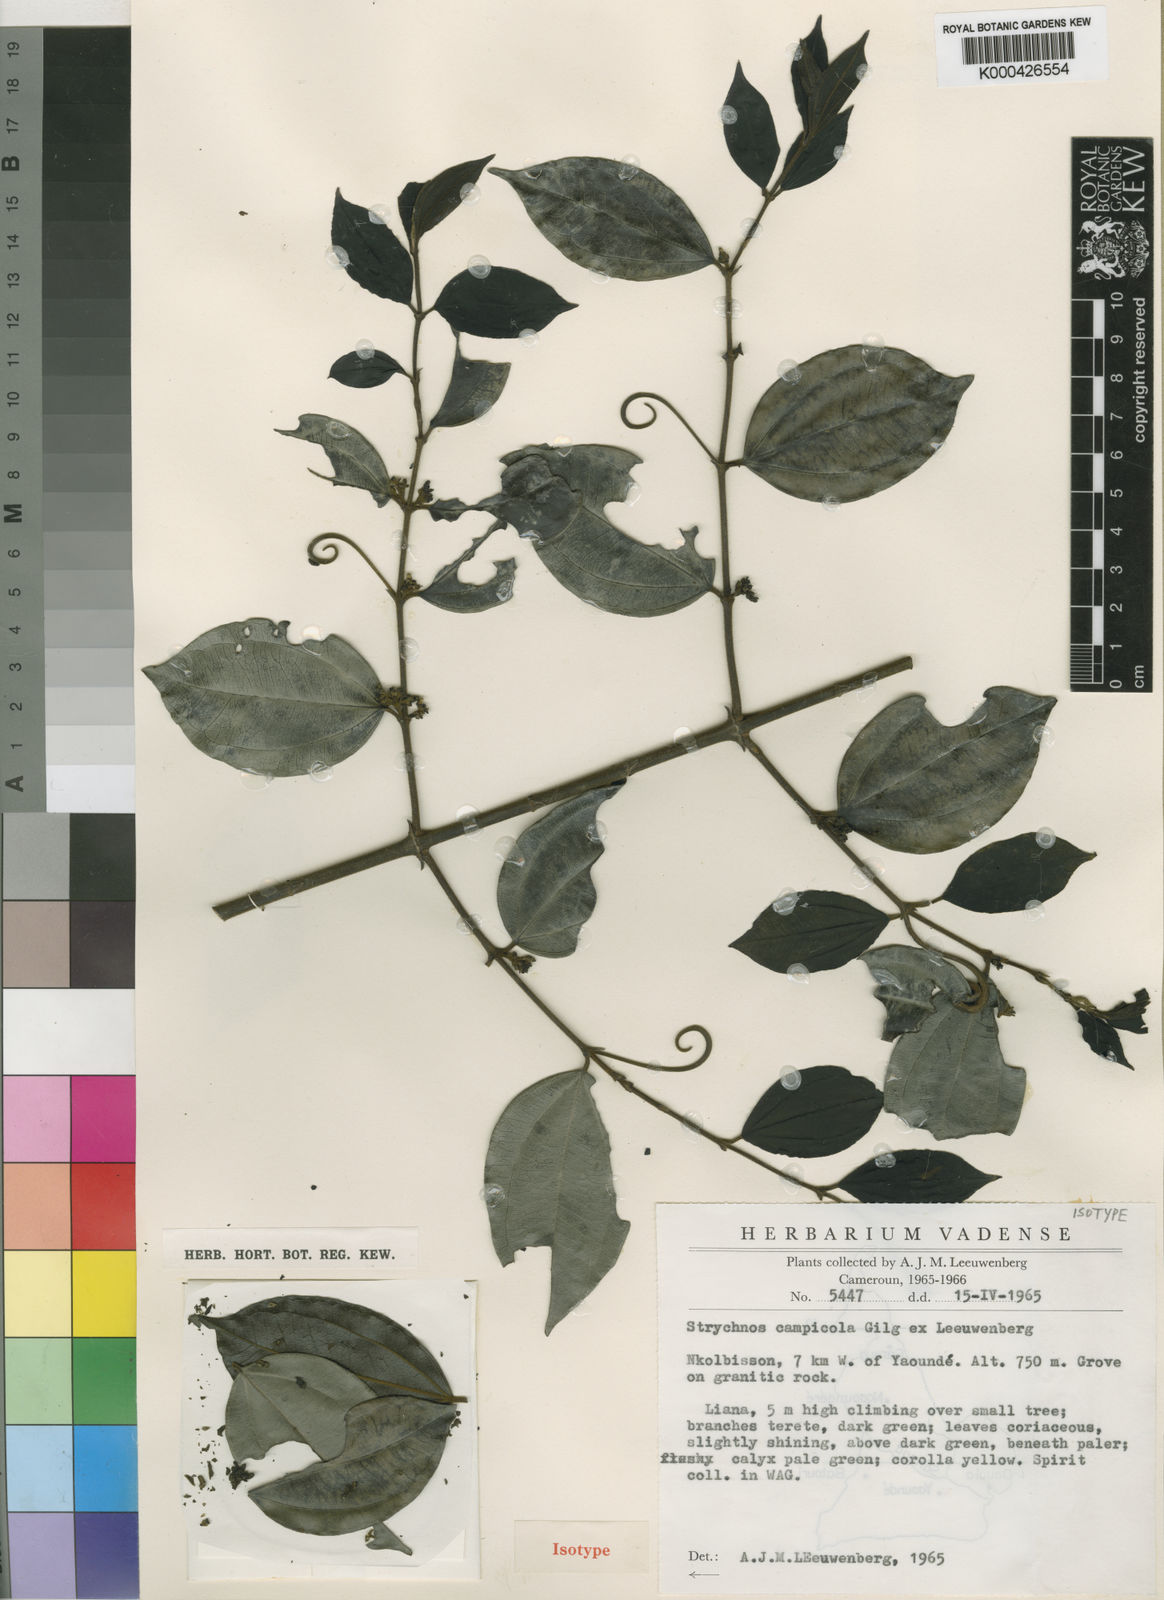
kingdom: Plantae
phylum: Tracheophyta
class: Magnoliopsida
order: Gentianales
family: Loganiaceae
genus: Strychnos
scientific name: Strychnos campicola
